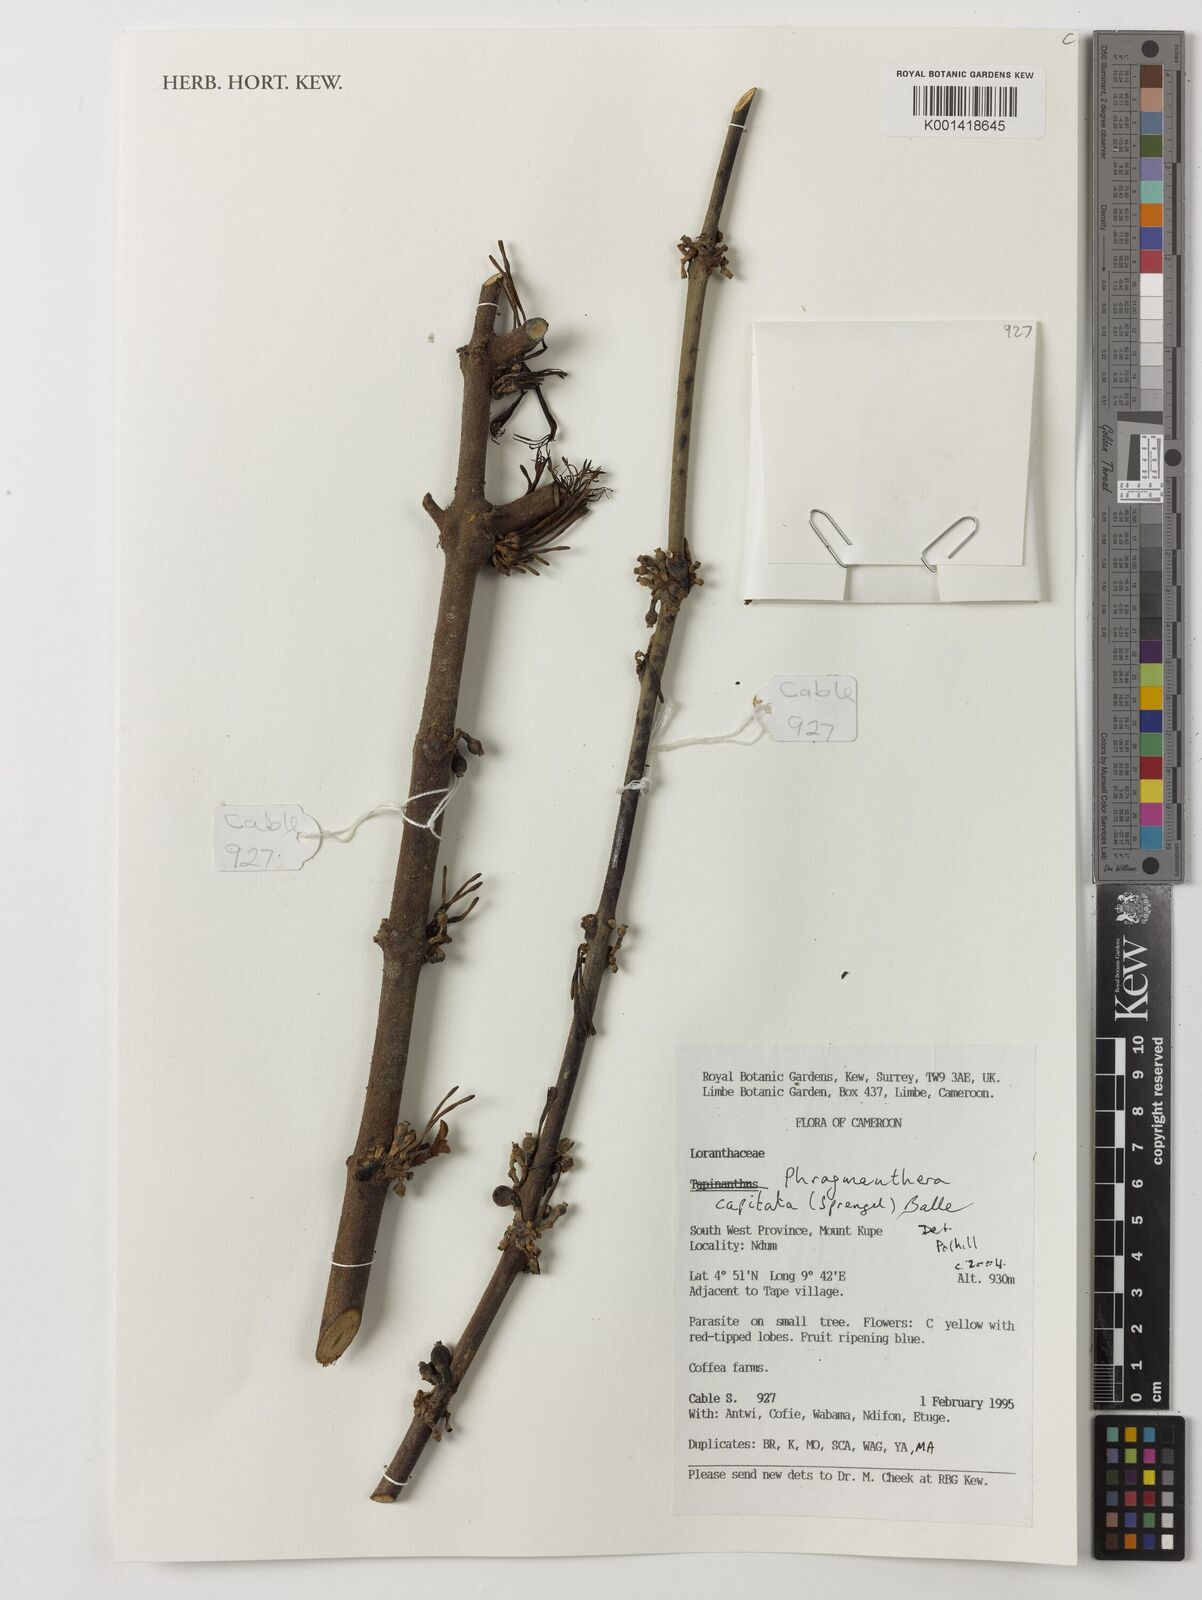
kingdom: Plantae
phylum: Tracheophyta
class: Magnoliopsida
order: Santalales
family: Loranthaceae
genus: Phragmanthera
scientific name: Phragmanthera capitata
